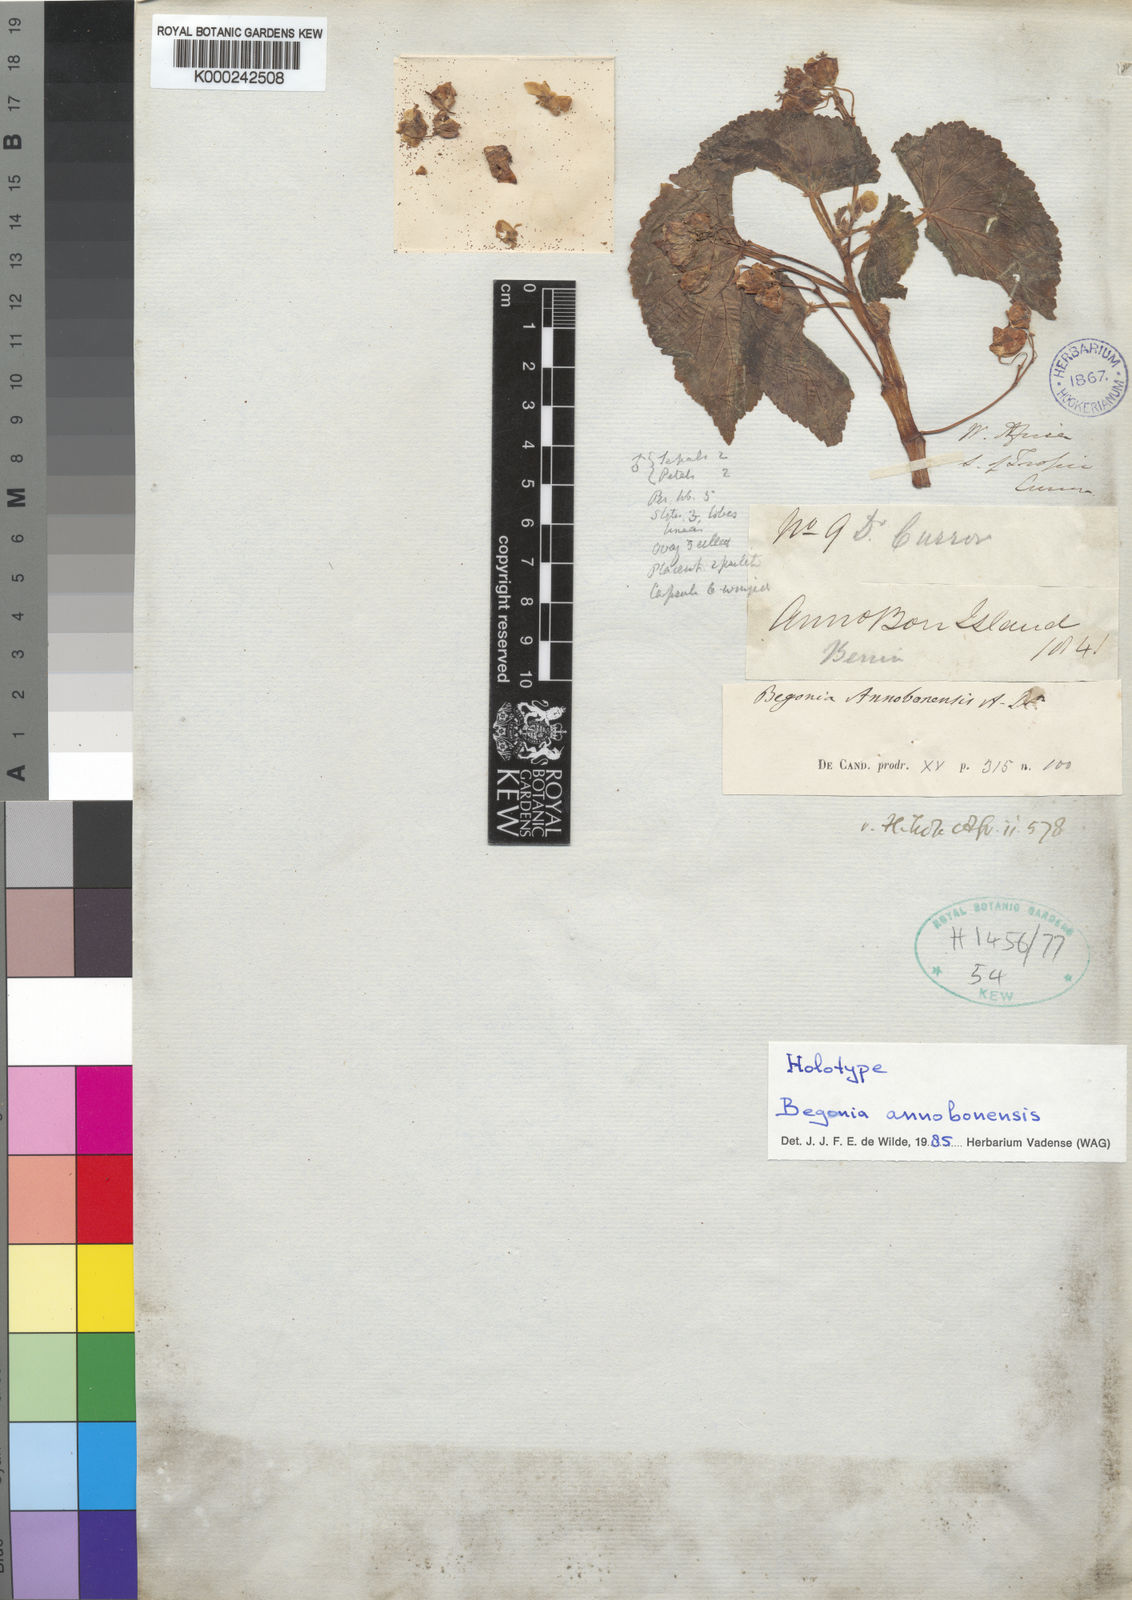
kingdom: Plantae
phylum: Tracheophyta
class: Magnoliopsida
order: Cucurbitales
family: Begoniaceae
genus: Begonia
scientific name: Begonia annobonensis
